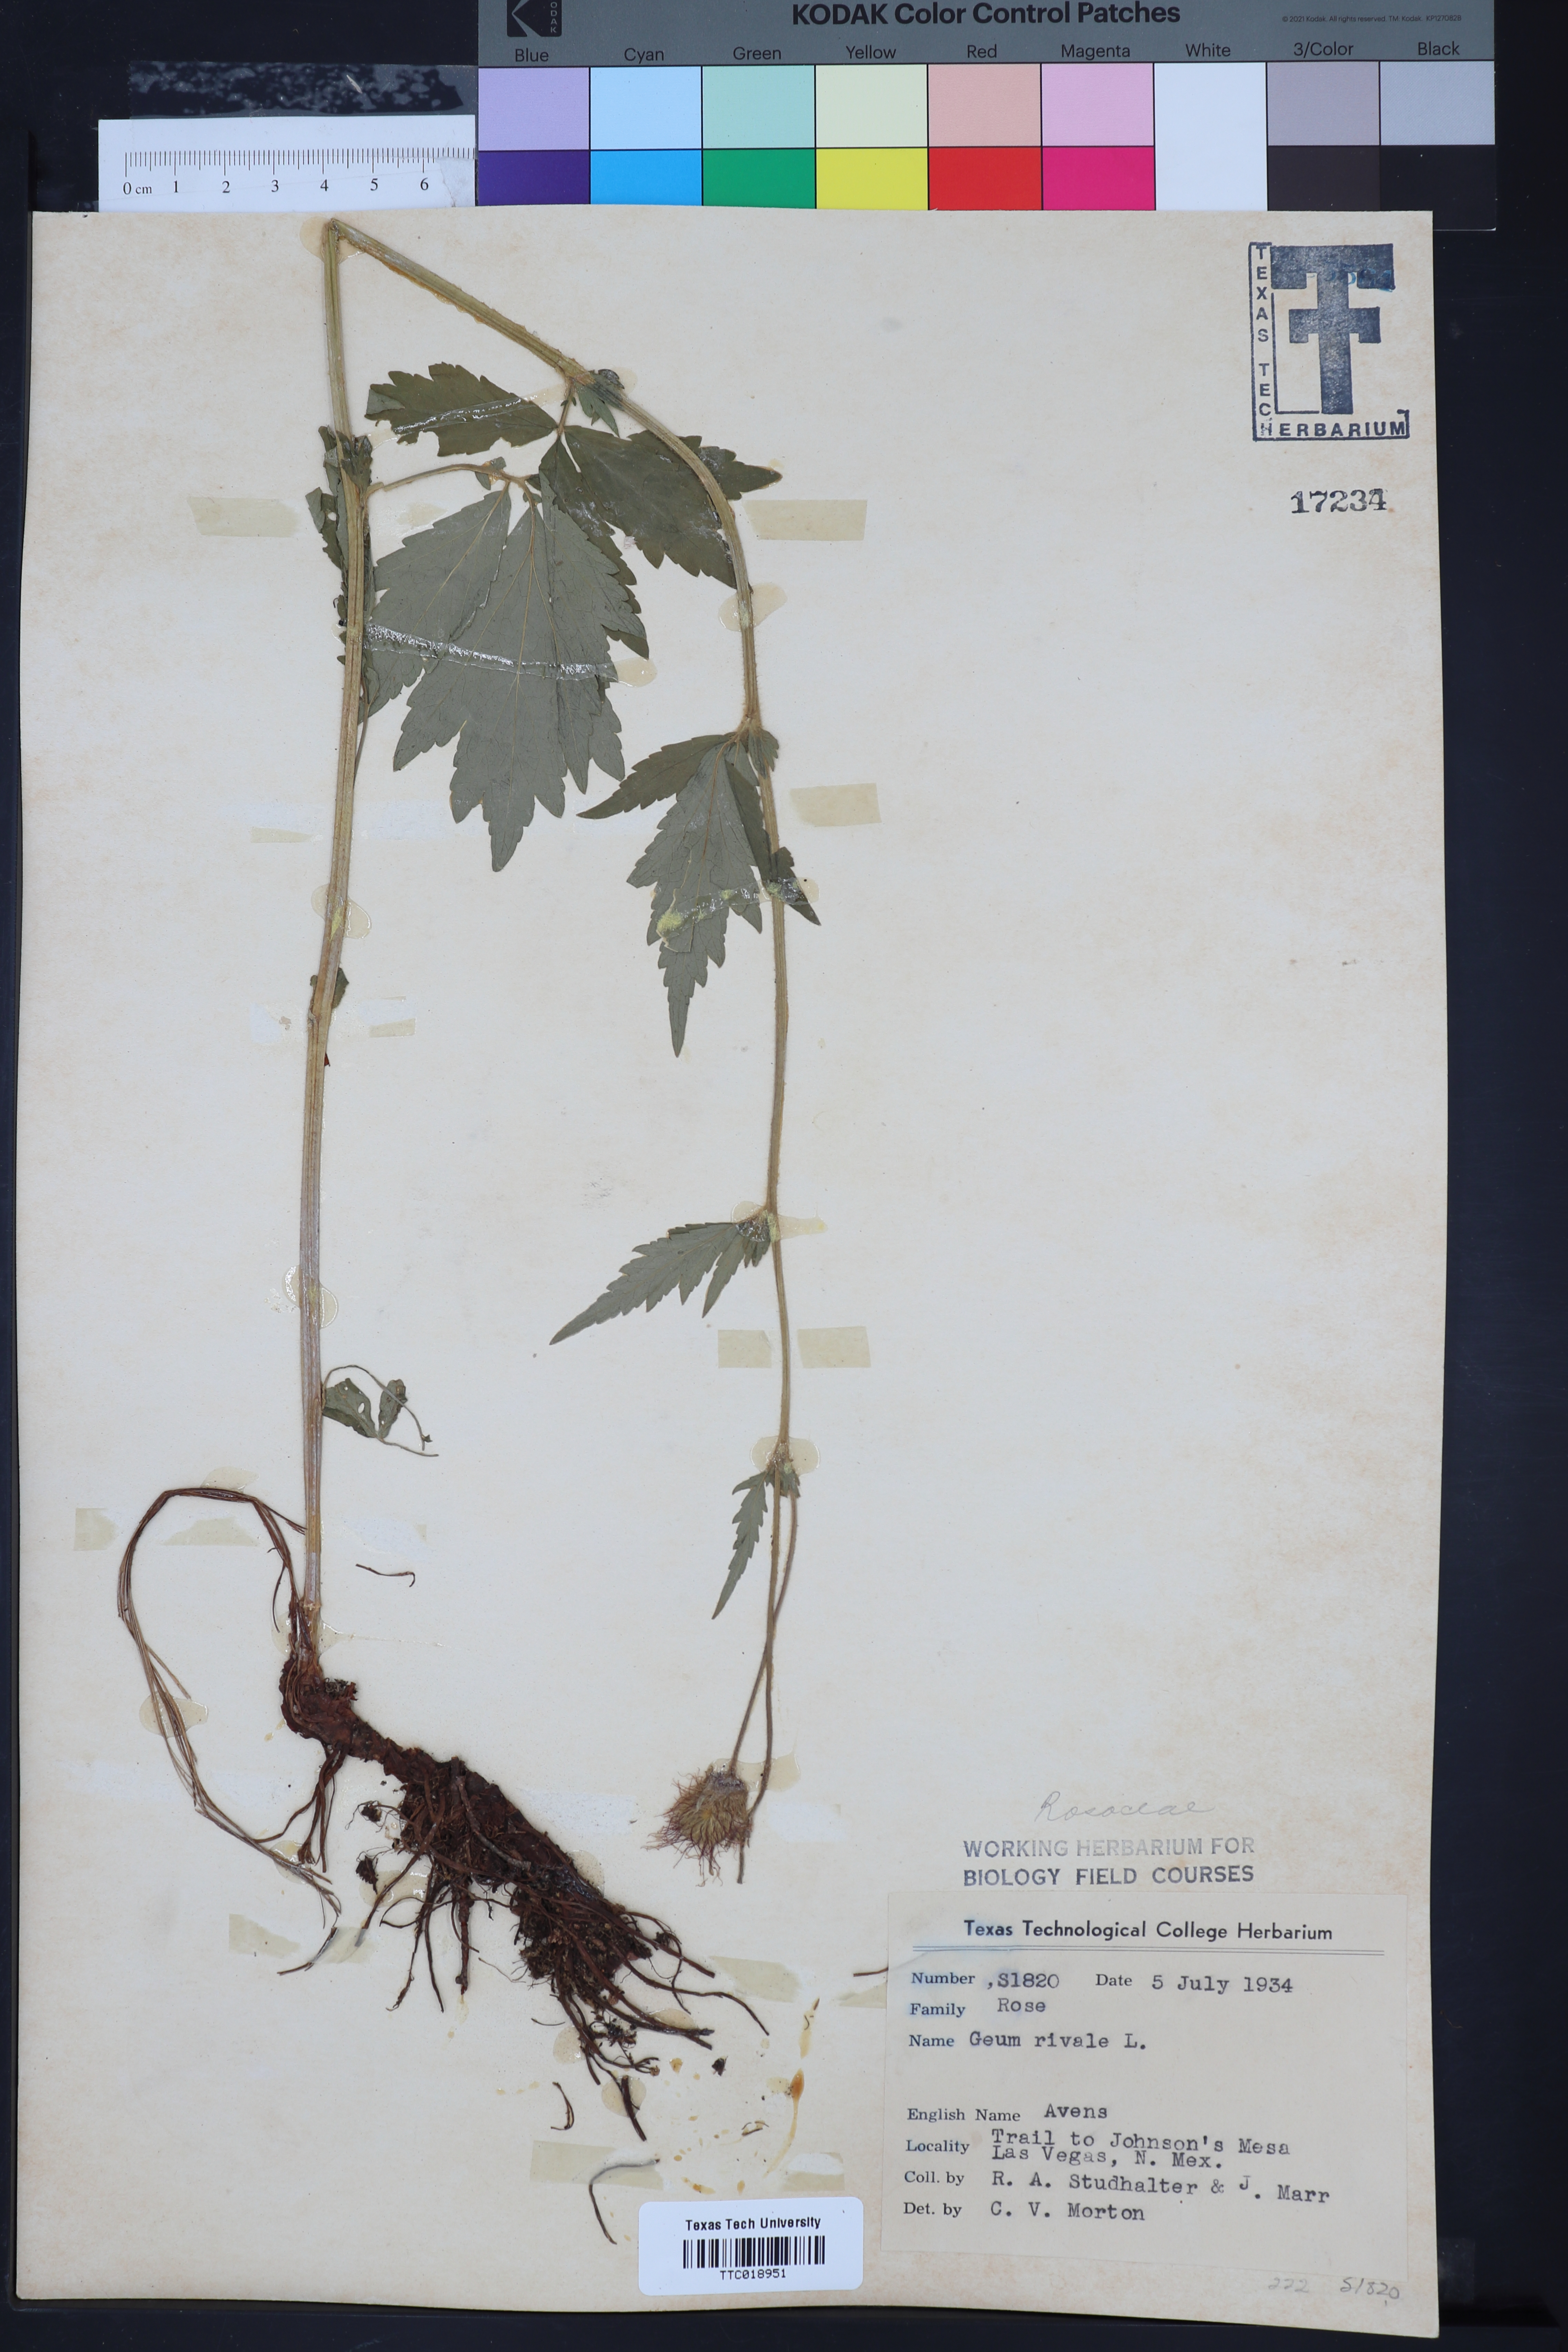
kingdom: Plantae
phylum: Tracheophyta
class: Magnoliopsida
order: Rosales
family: Rosaceae
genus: Geum
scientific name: Geum rivale
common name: Water avens
